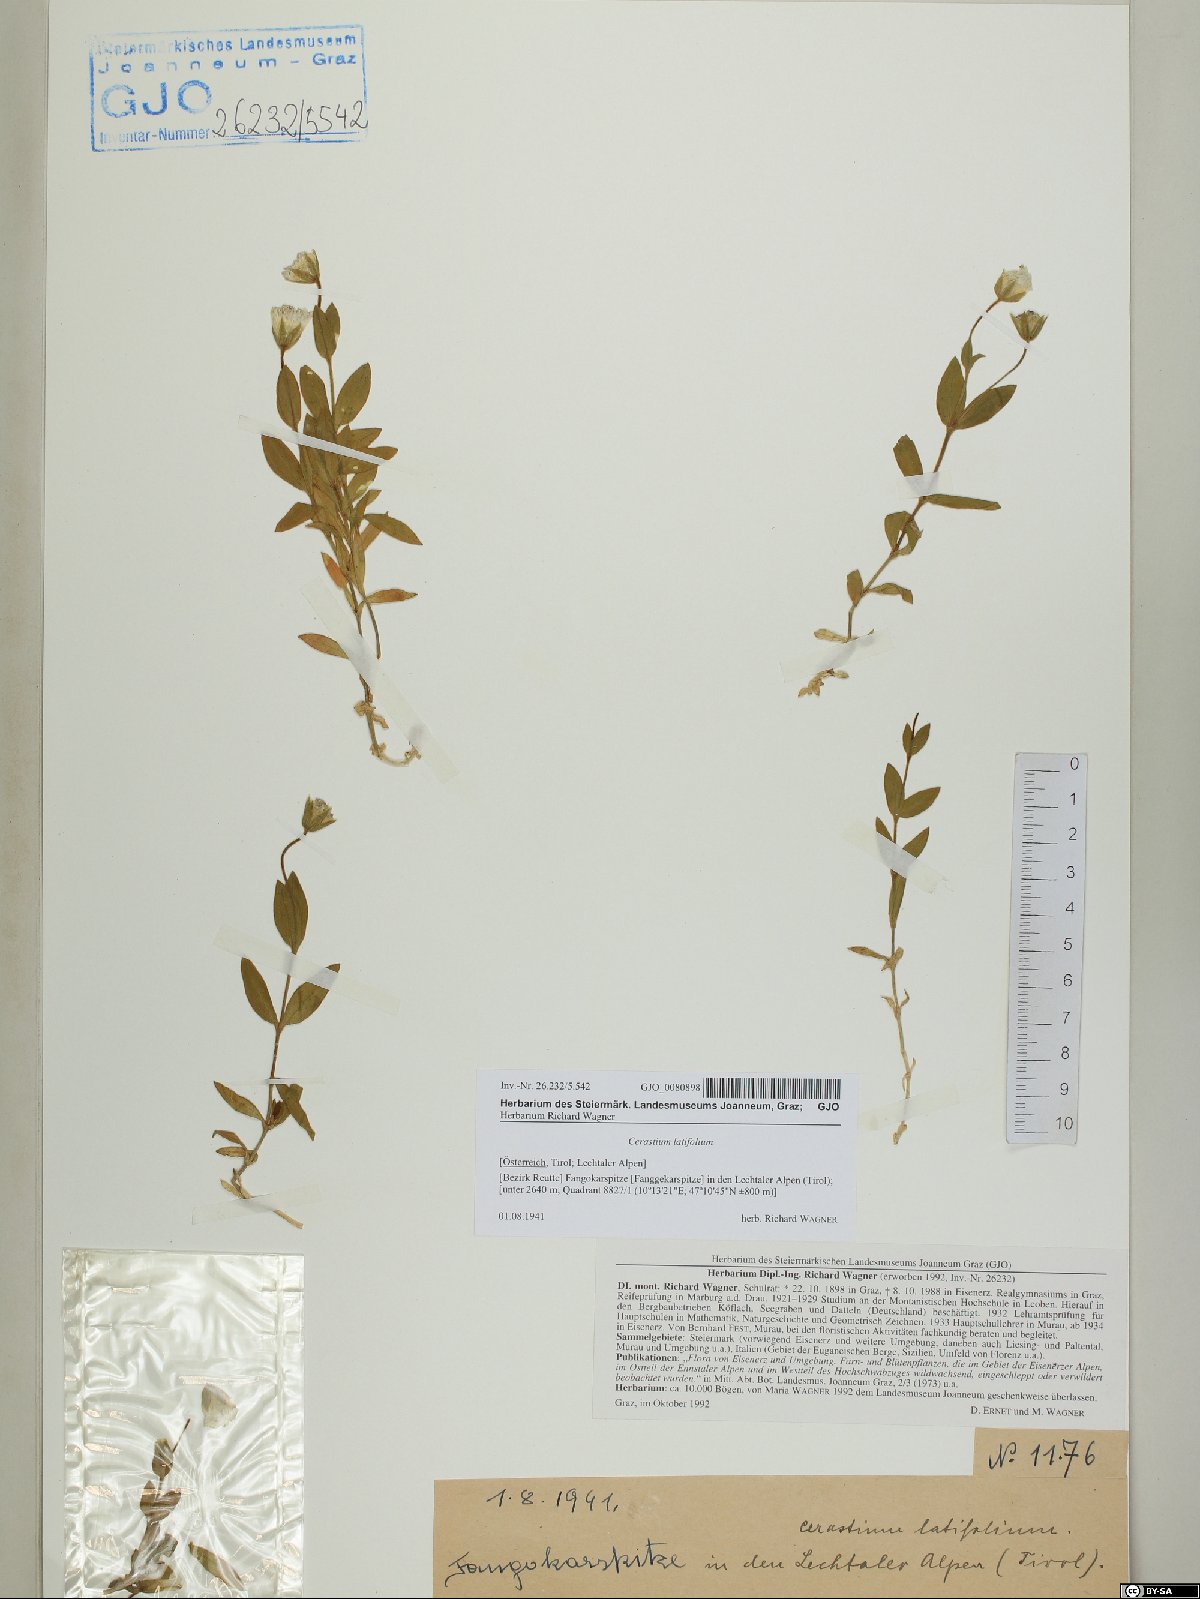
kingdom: Plantae
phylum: Tracheophyta
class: Magnoliopsida
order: Caryophyllales
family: Caryophyllaceae
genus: Cerastium
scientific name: Cerastium latifolium
